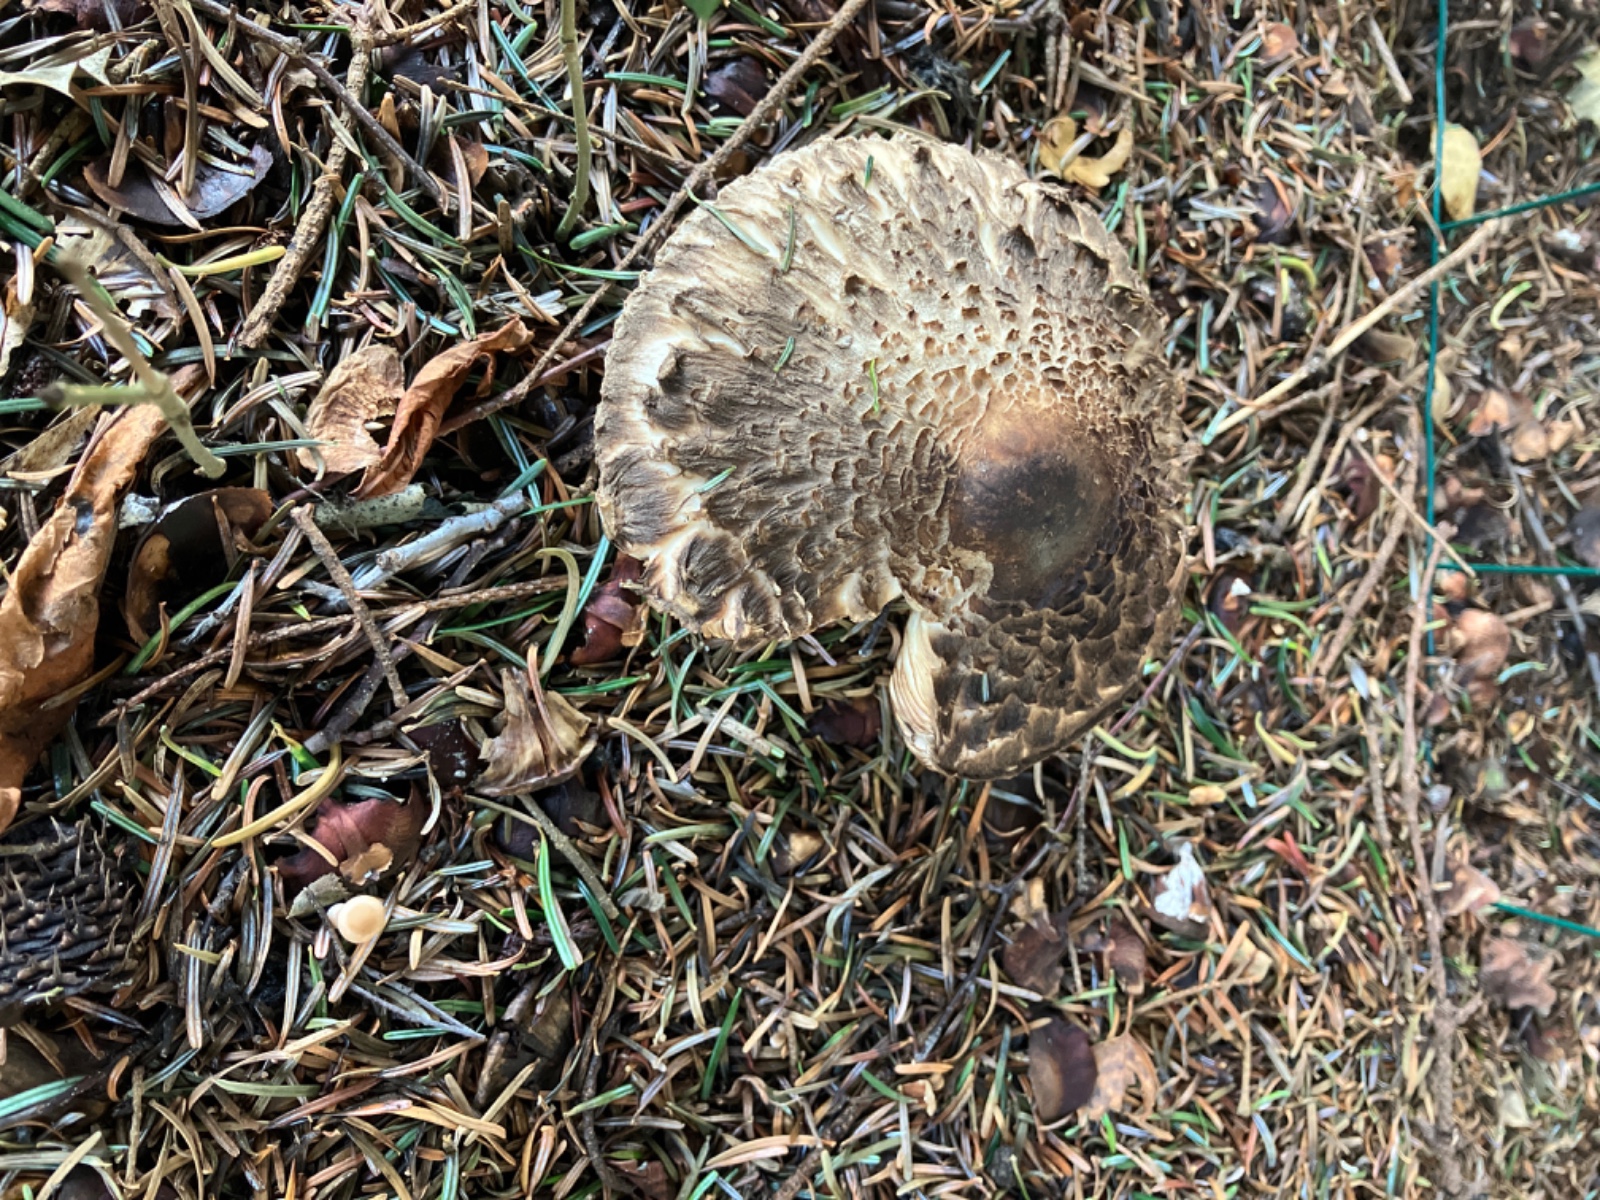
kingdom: Fungi
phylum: Basidiomycota
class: Agaricomycetes
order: Agaricales
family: Agaricaceae
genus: Chlorophyllum
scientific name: Chlorophyllum olivieri
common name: almindelig rabarberhat
